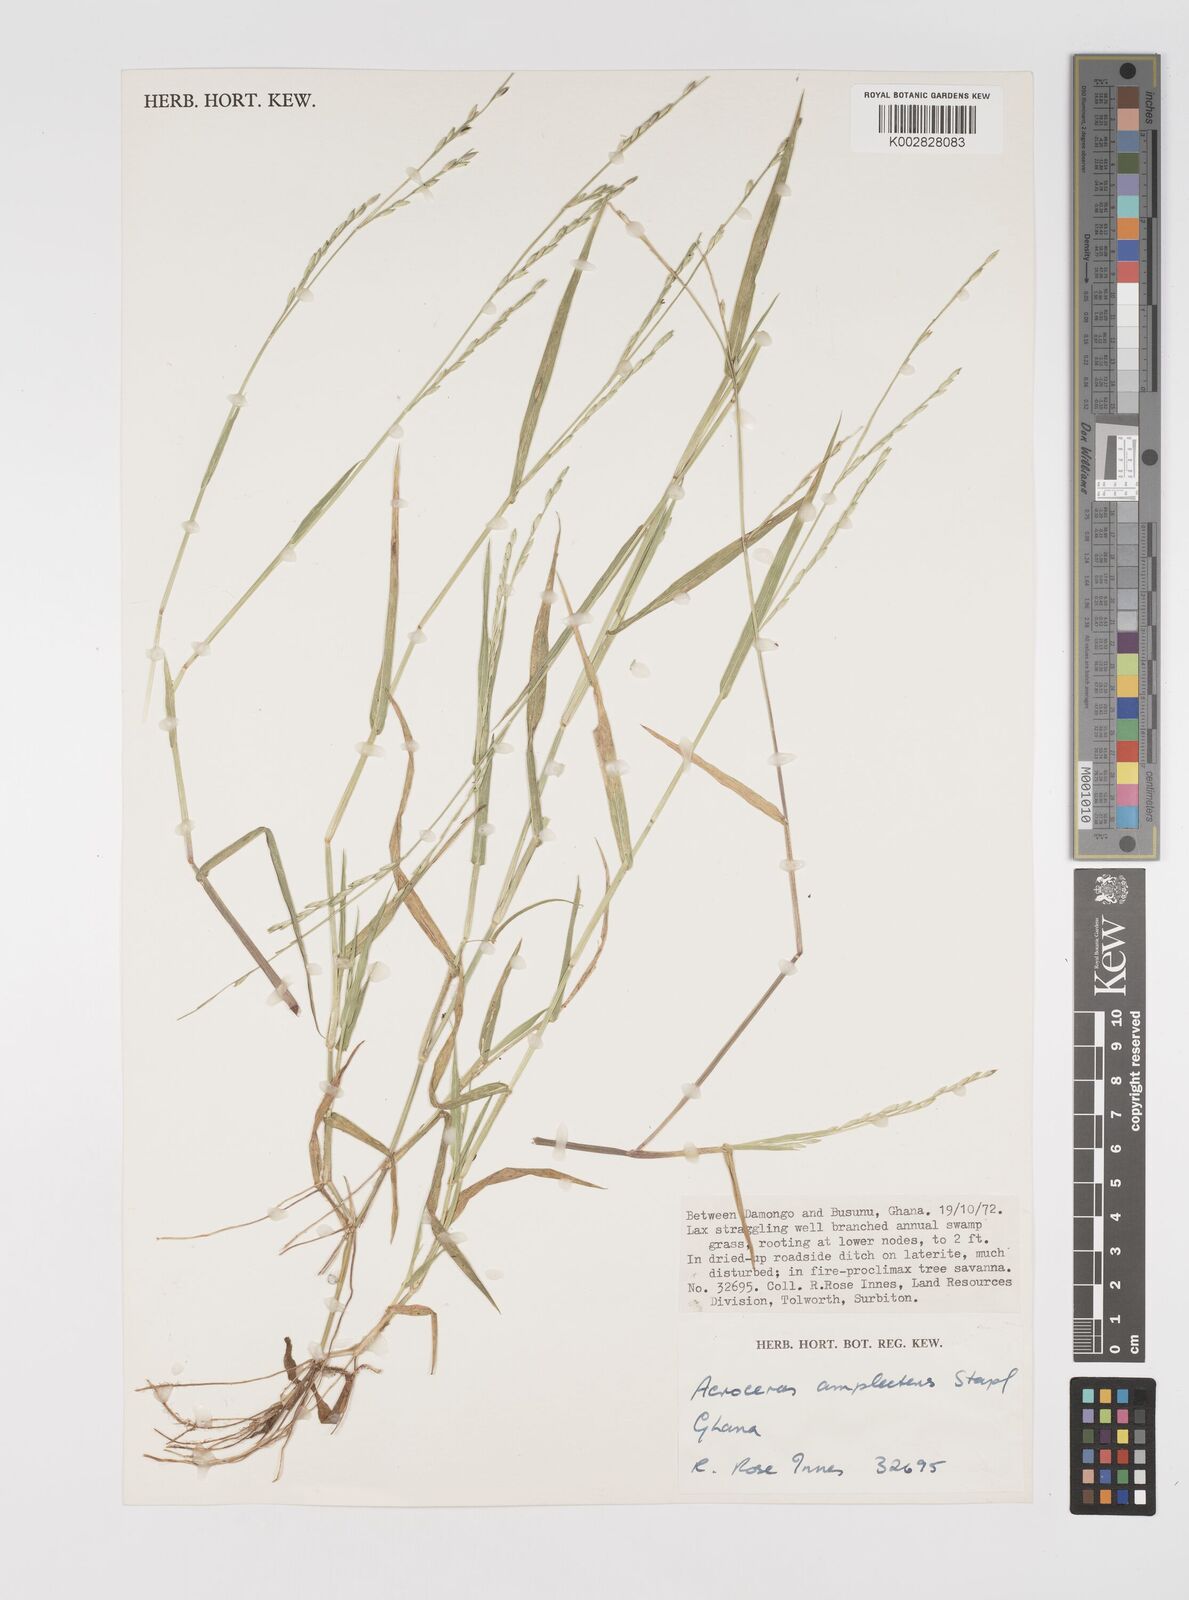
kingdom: Plantae
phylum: Tracheophyta
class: Liliopsida
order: Poales
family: Poaceae
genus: Acroceras
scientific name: Acroceras amplectens
